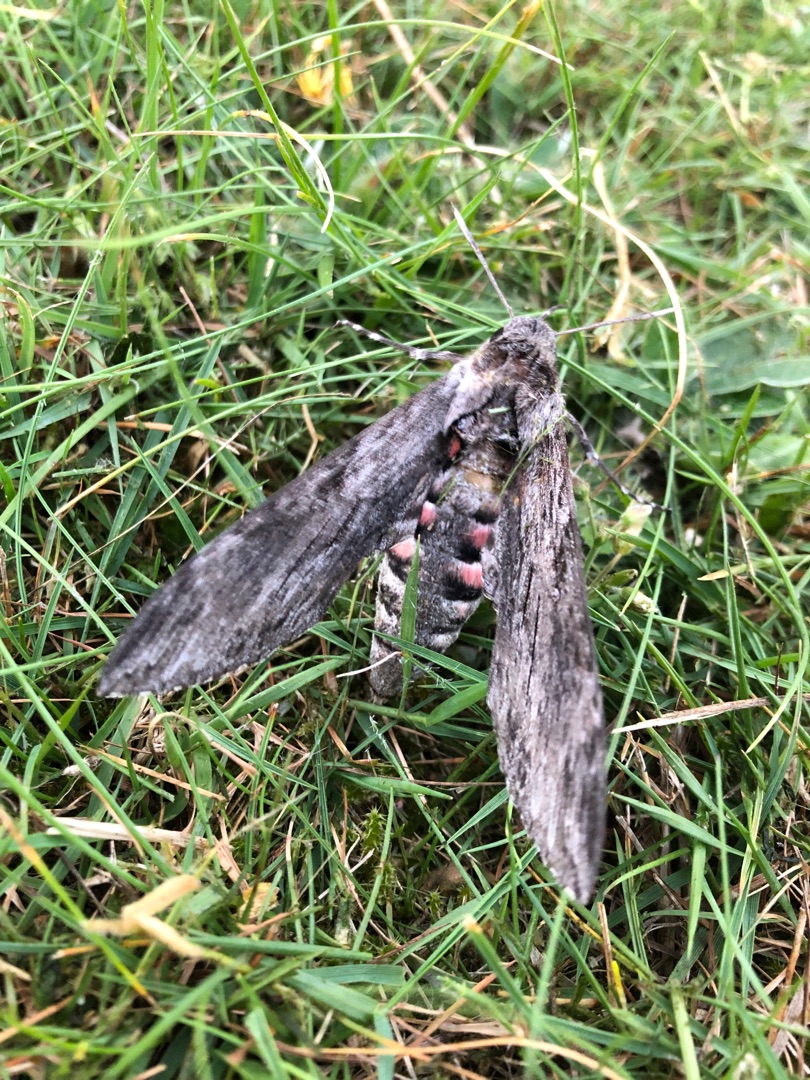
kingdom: Animalia
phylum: Arthropoda
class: Insecta
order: Lepidoptera
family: Sphingidae
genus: Agrius
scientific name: Agrius convolvuli
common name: Snerlesværmer
